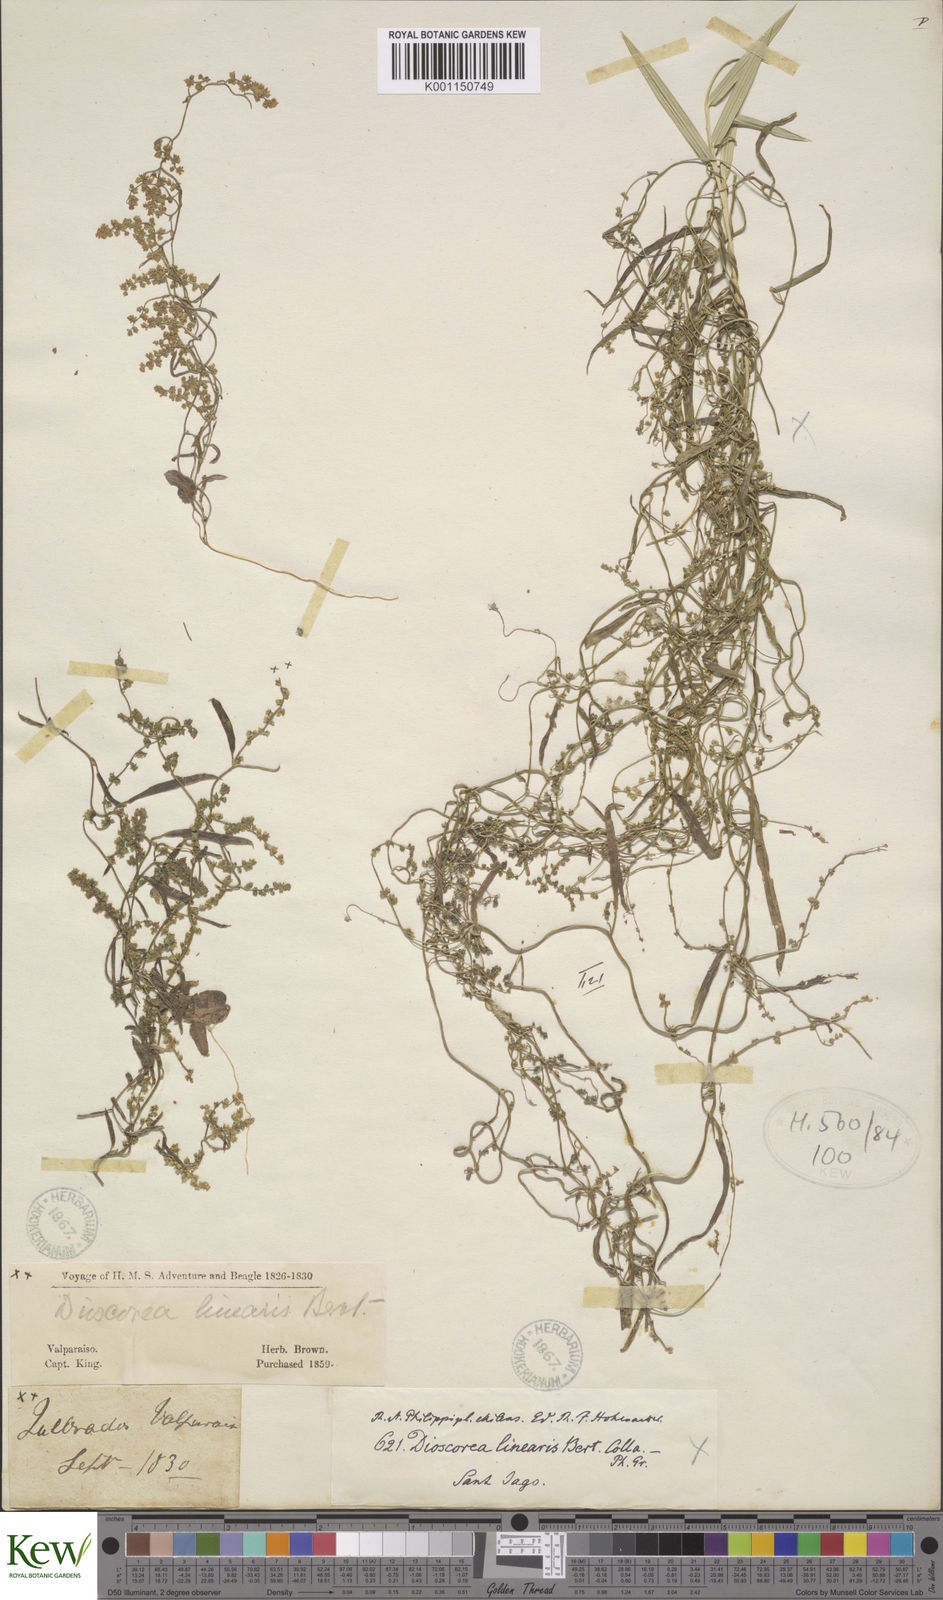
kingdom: Plantae
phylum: Tracheophyta
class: Liliopsida
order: Dioscoreales
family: Dioscoreaceae
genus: Dioscorea
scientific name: Dioscorea
